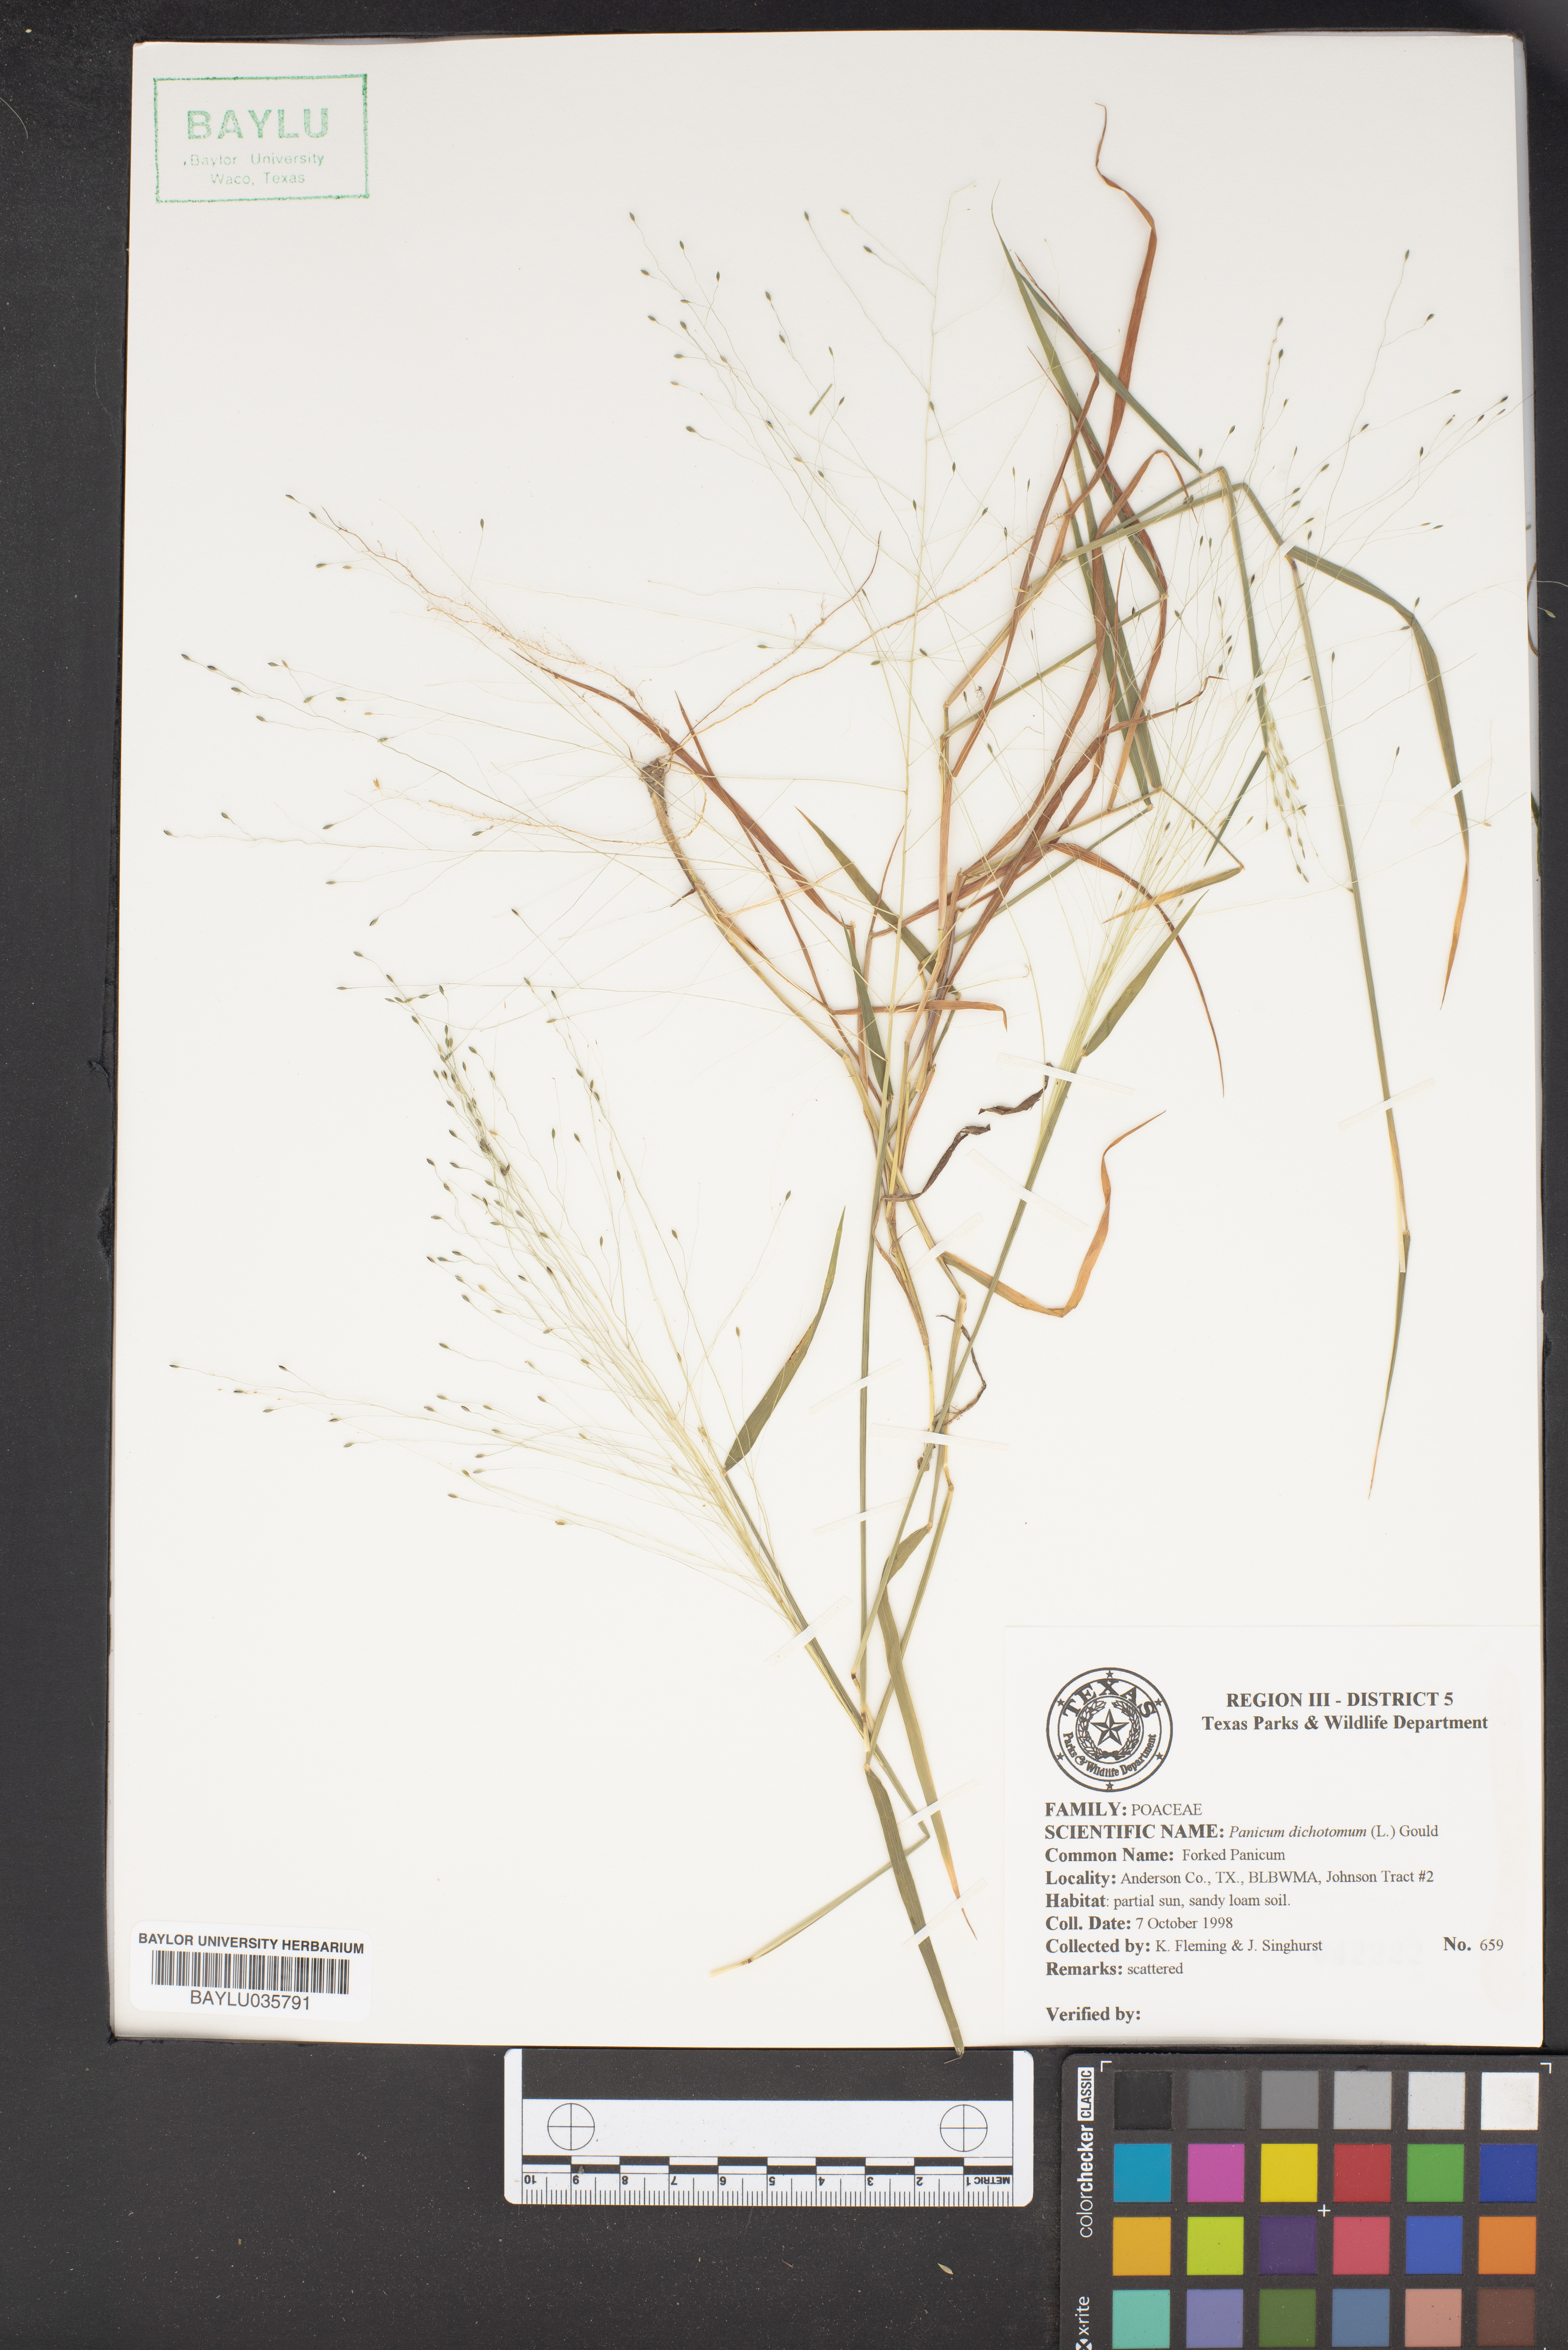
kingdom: Plantae
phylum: Tracheophyta
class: Liliopsida
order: Poales
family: Poaceae
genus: Dichanthelium
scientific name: Dichanthelium dichotomum
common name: Cypress panicgrass
